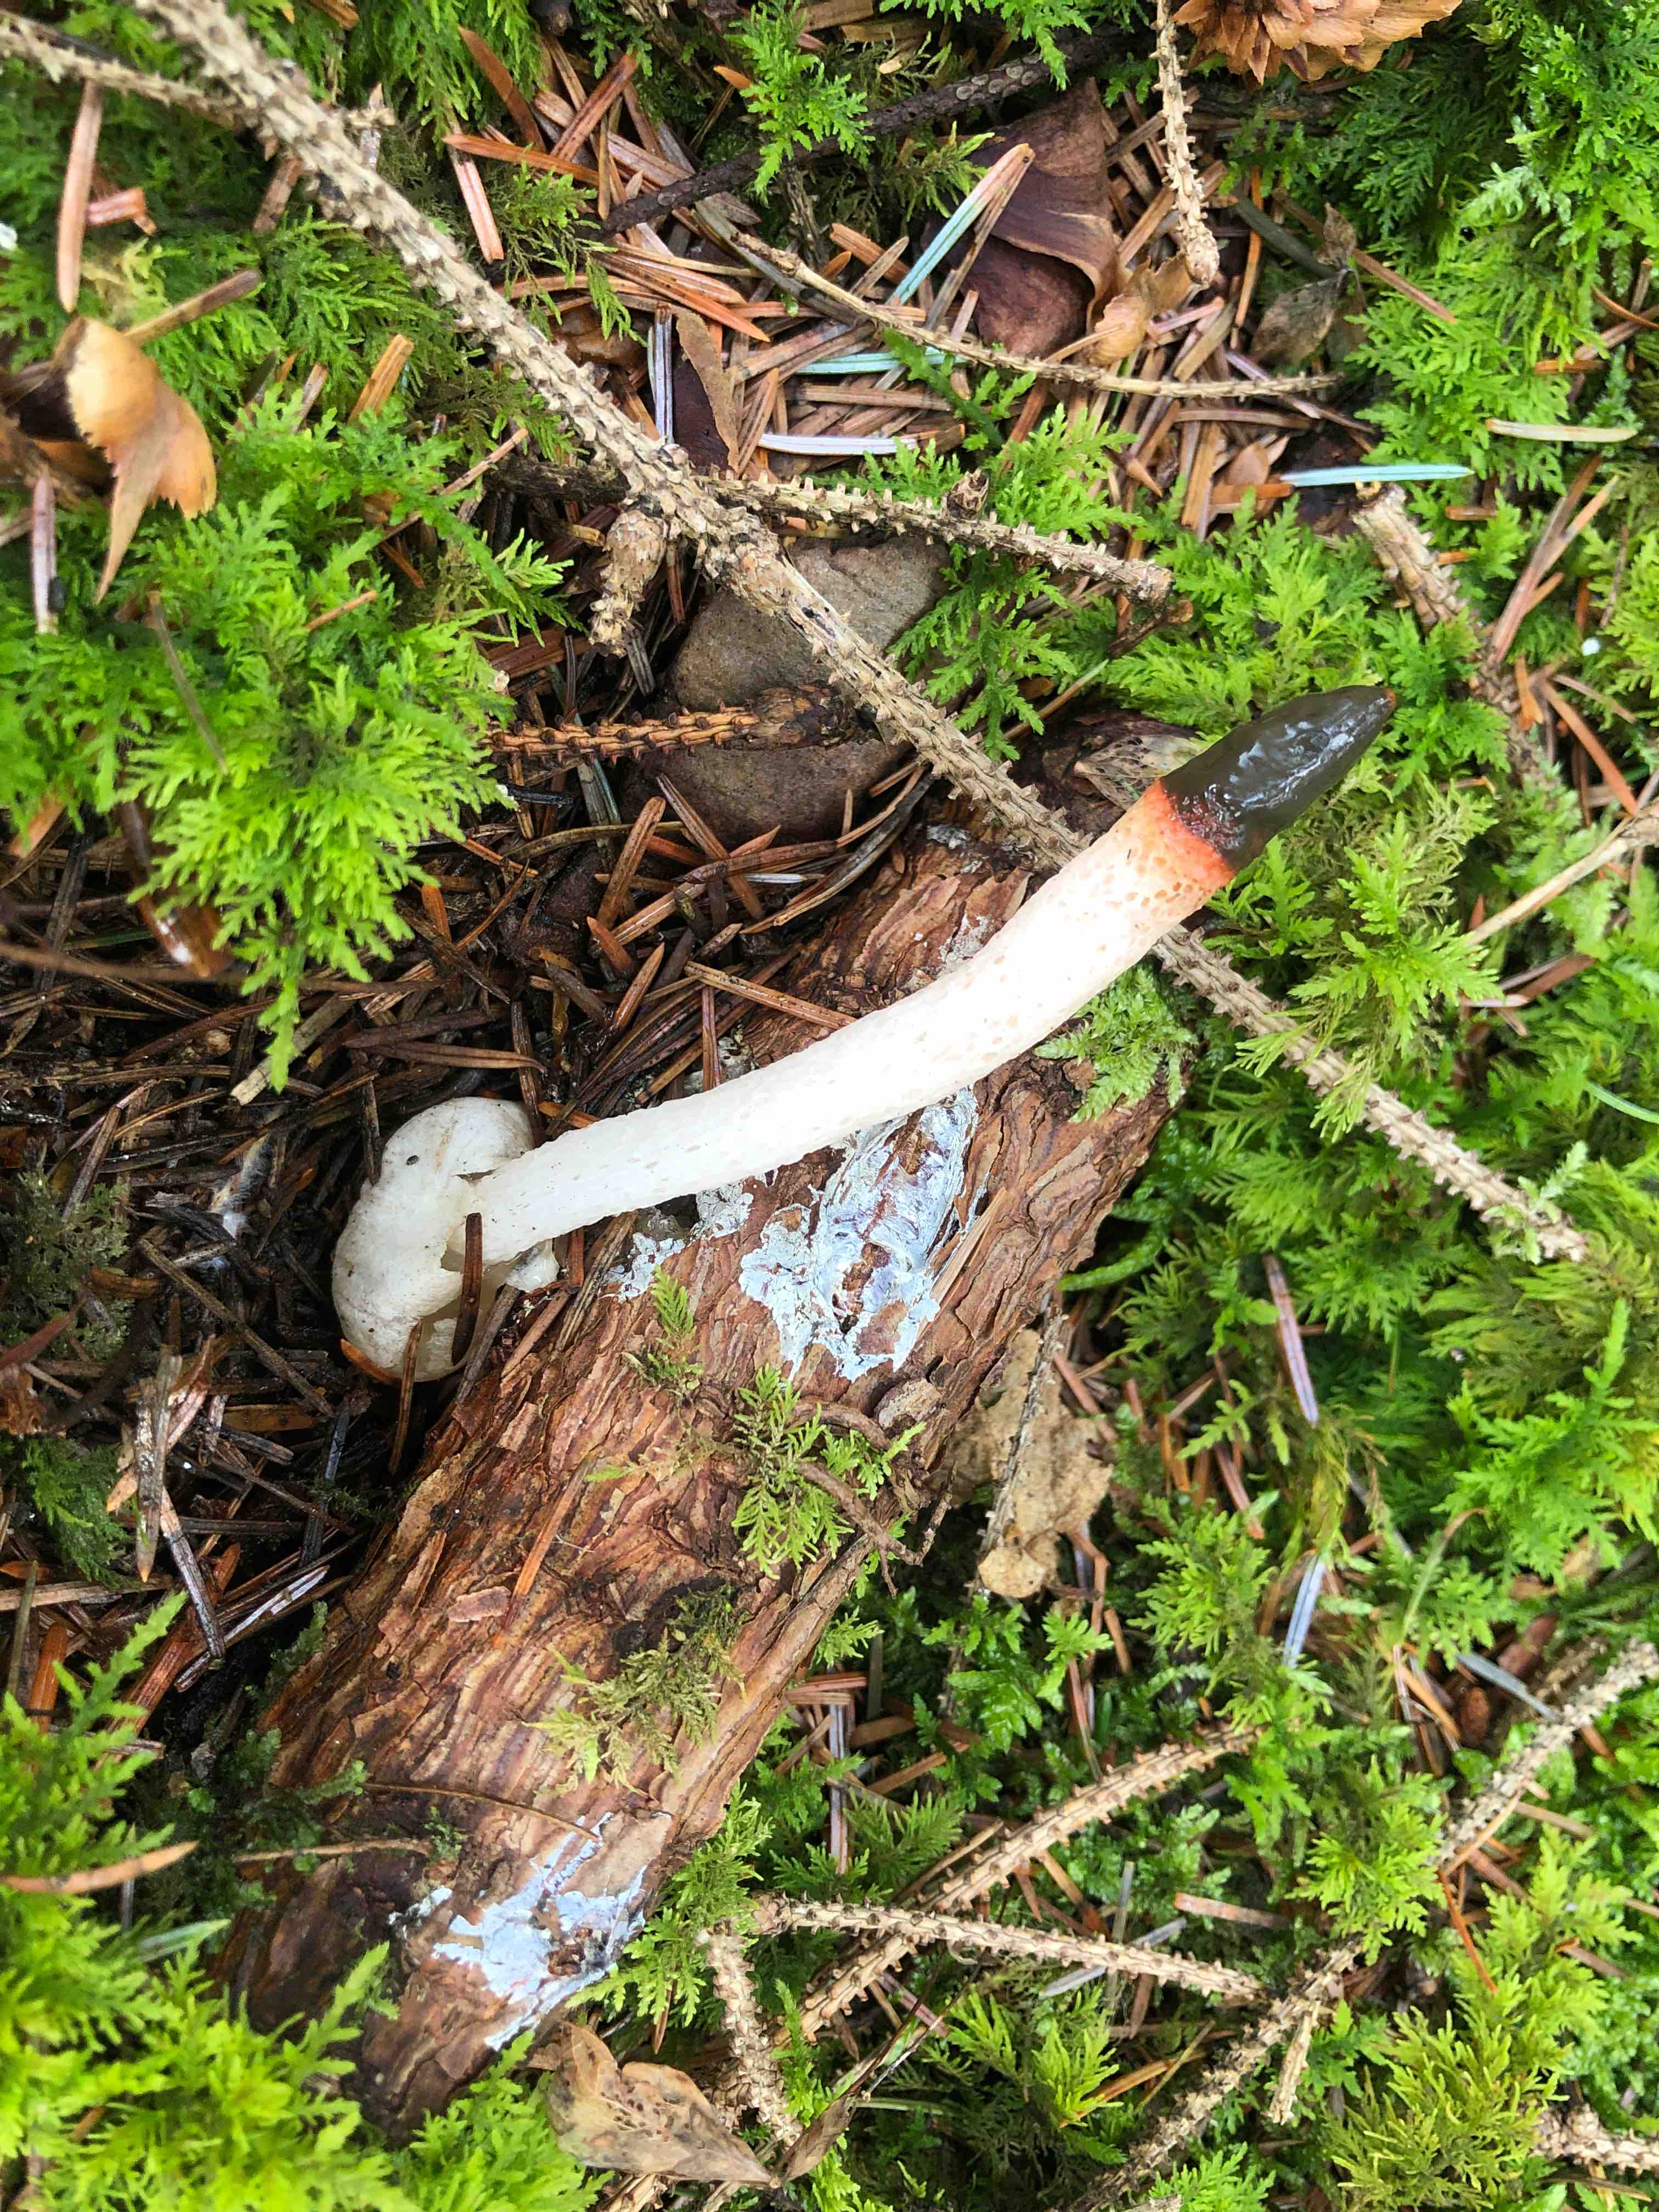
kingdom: Fungi
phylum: Basidiomycota
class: Agaricomycetes
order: Phallales
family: Phallaceae
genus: Mutinus
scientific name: Mutinus caninus
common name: hunde-stinksvamp
